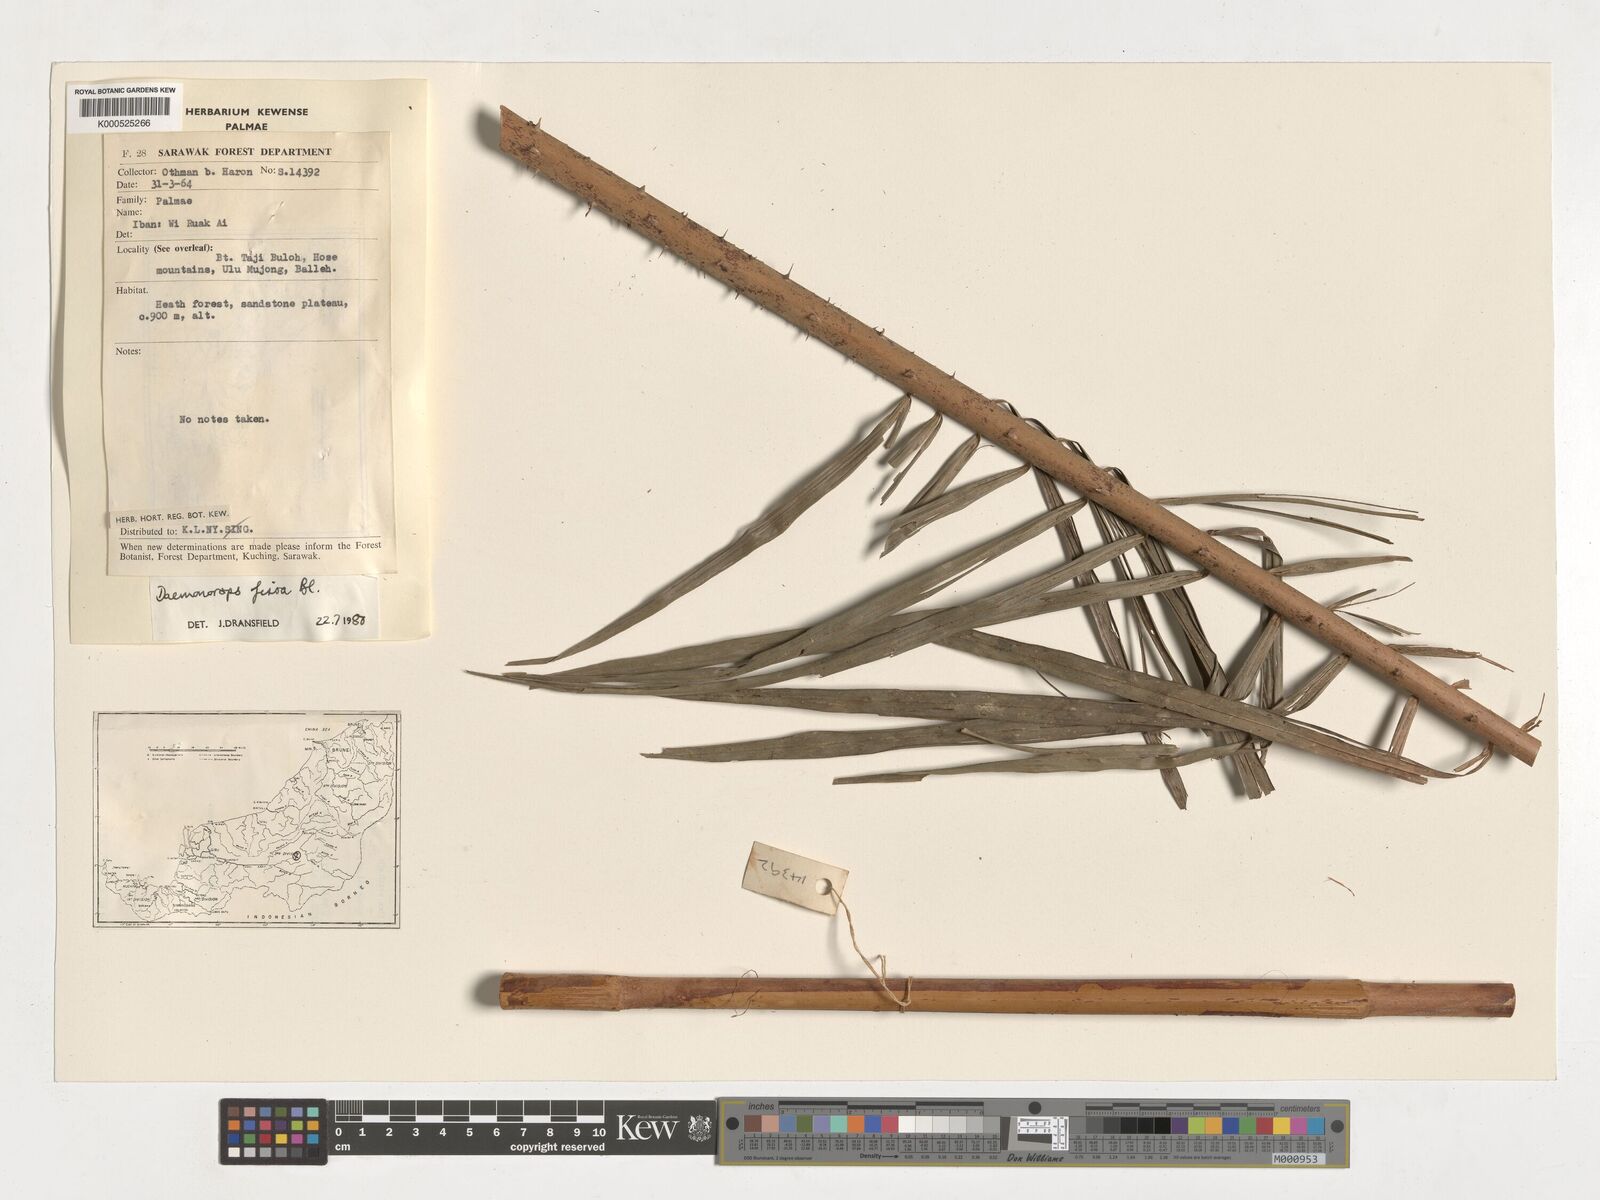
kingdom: Plantae
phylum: Tracheophyta
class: Liliopsida
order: Arecales
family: Arecaceae
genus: Calamus
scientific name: Calamus melanochaetes
